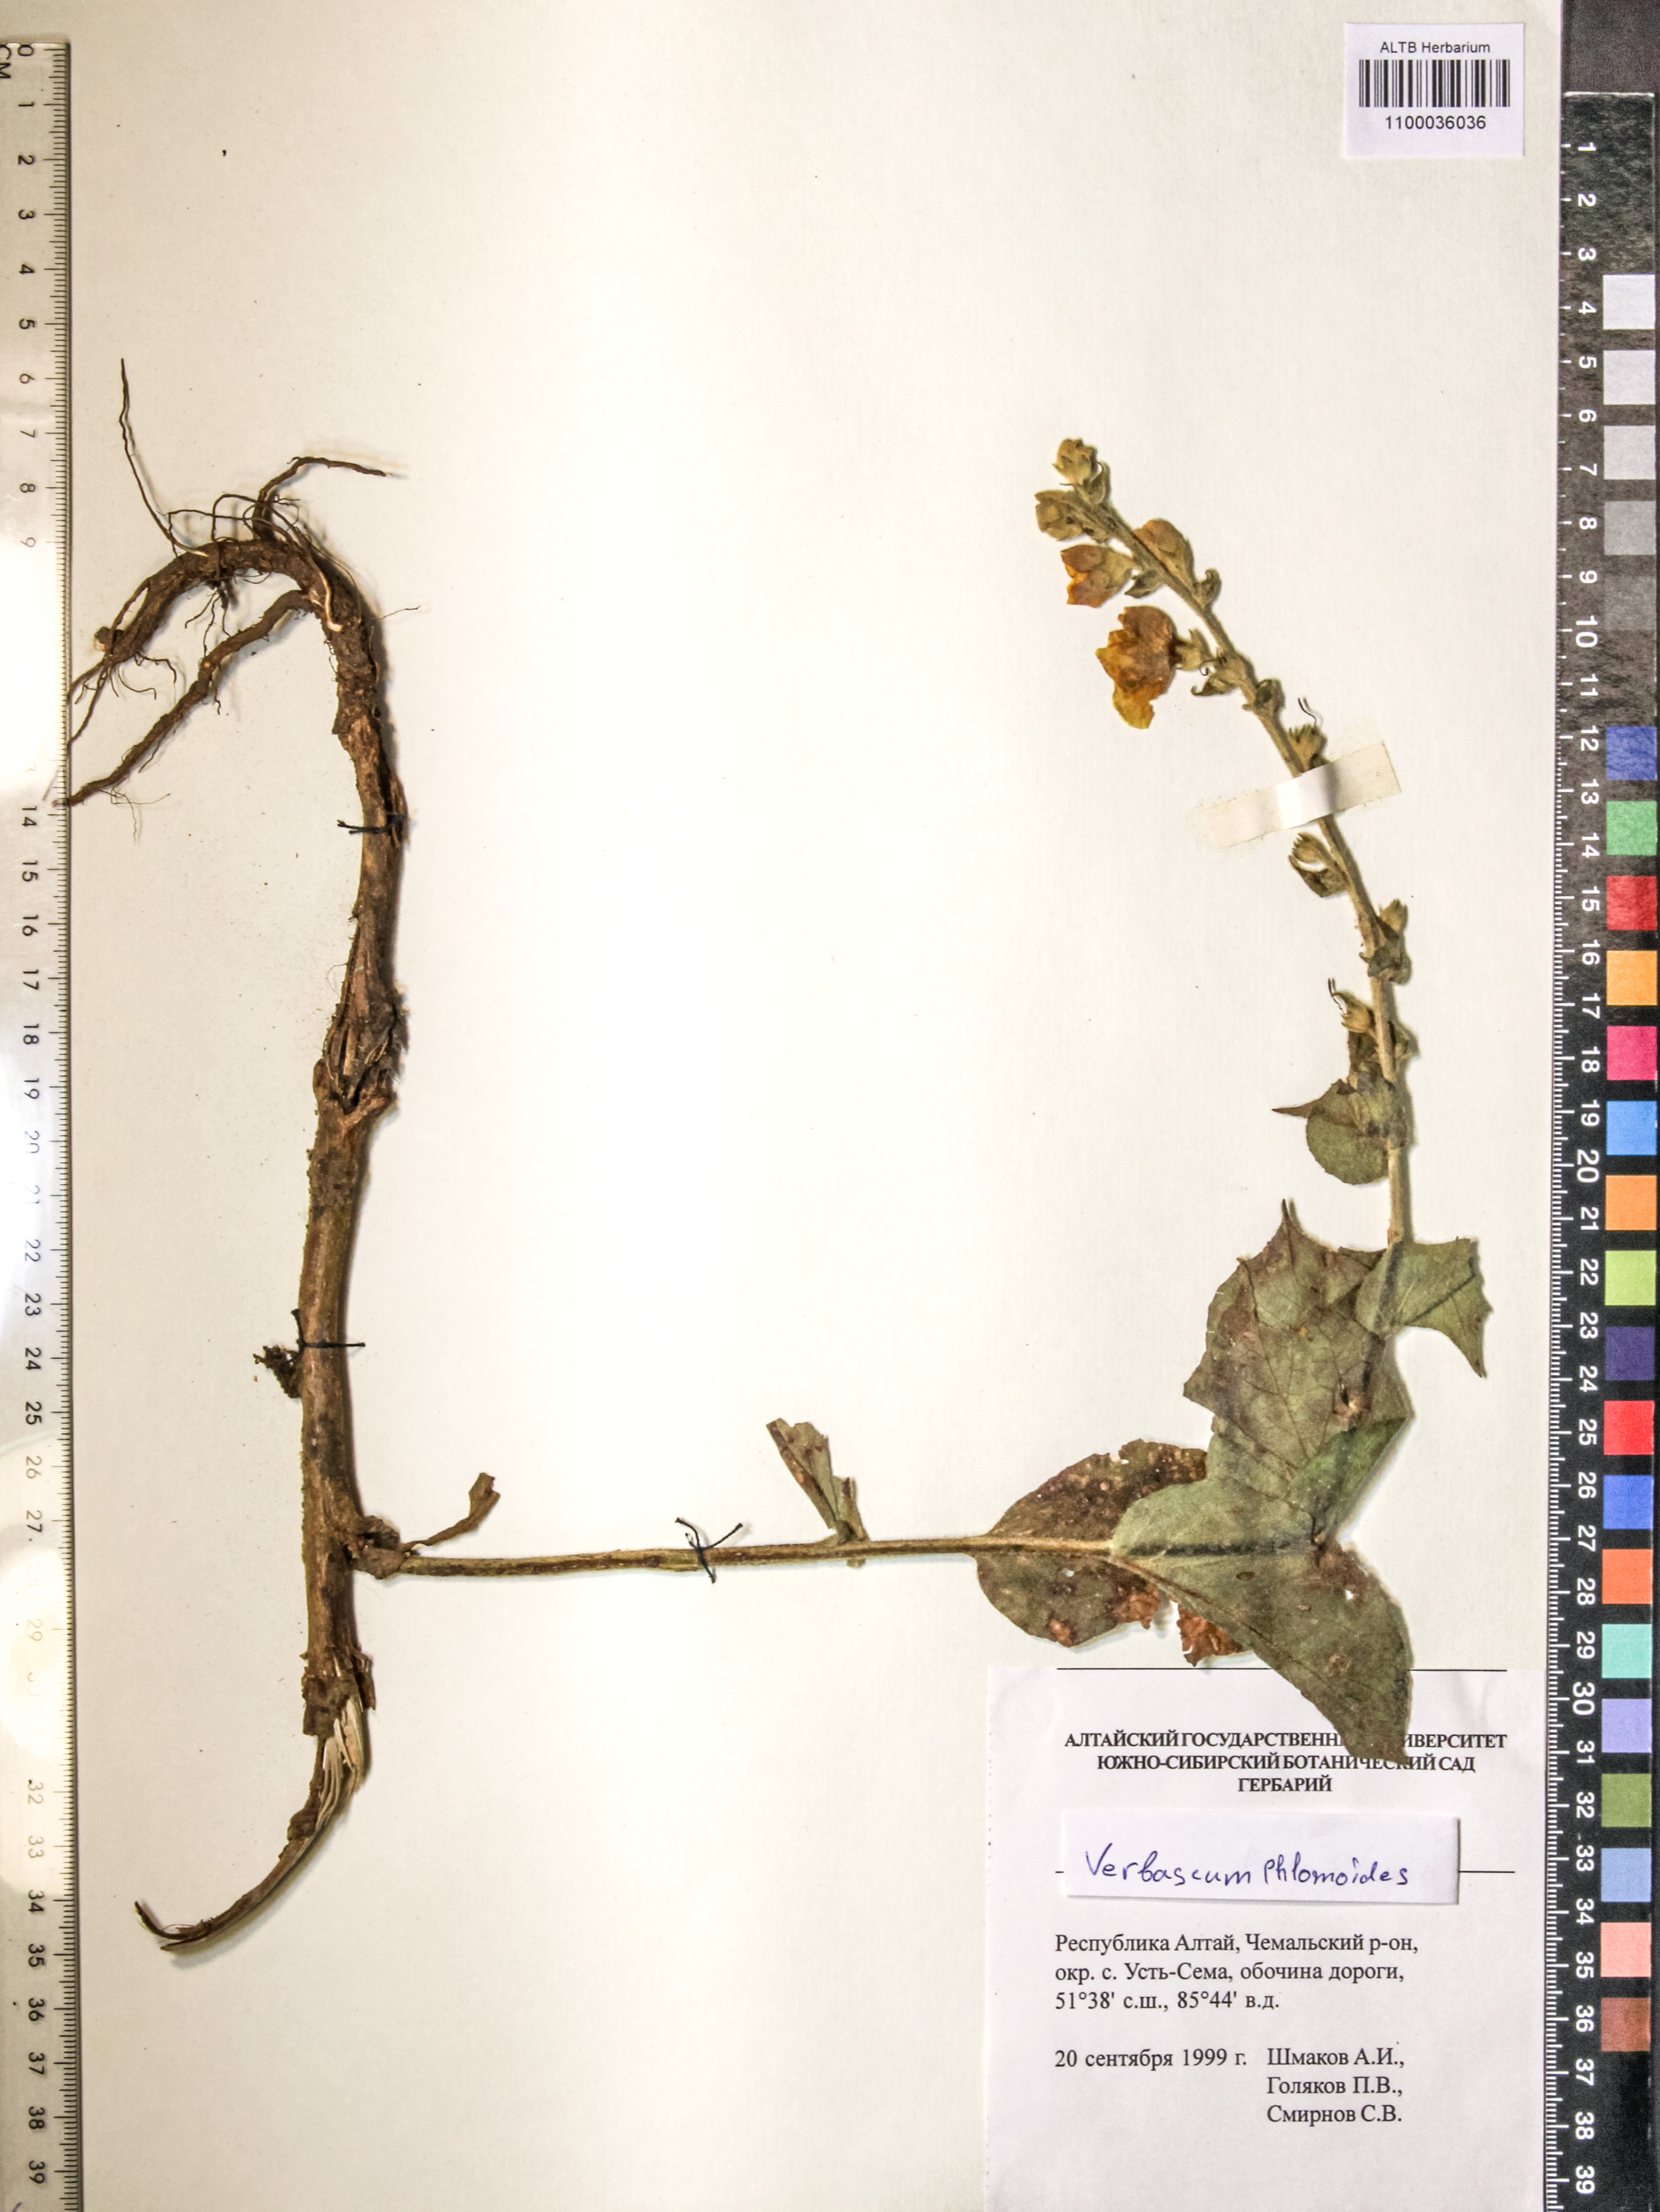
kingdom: Plantae
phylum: Tracheophyta
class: Magnoliopsida
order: Lamiales
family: Scrophulariaceae
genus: Verbascum
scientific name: Verbascum phlomoides
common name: Orange mullein
